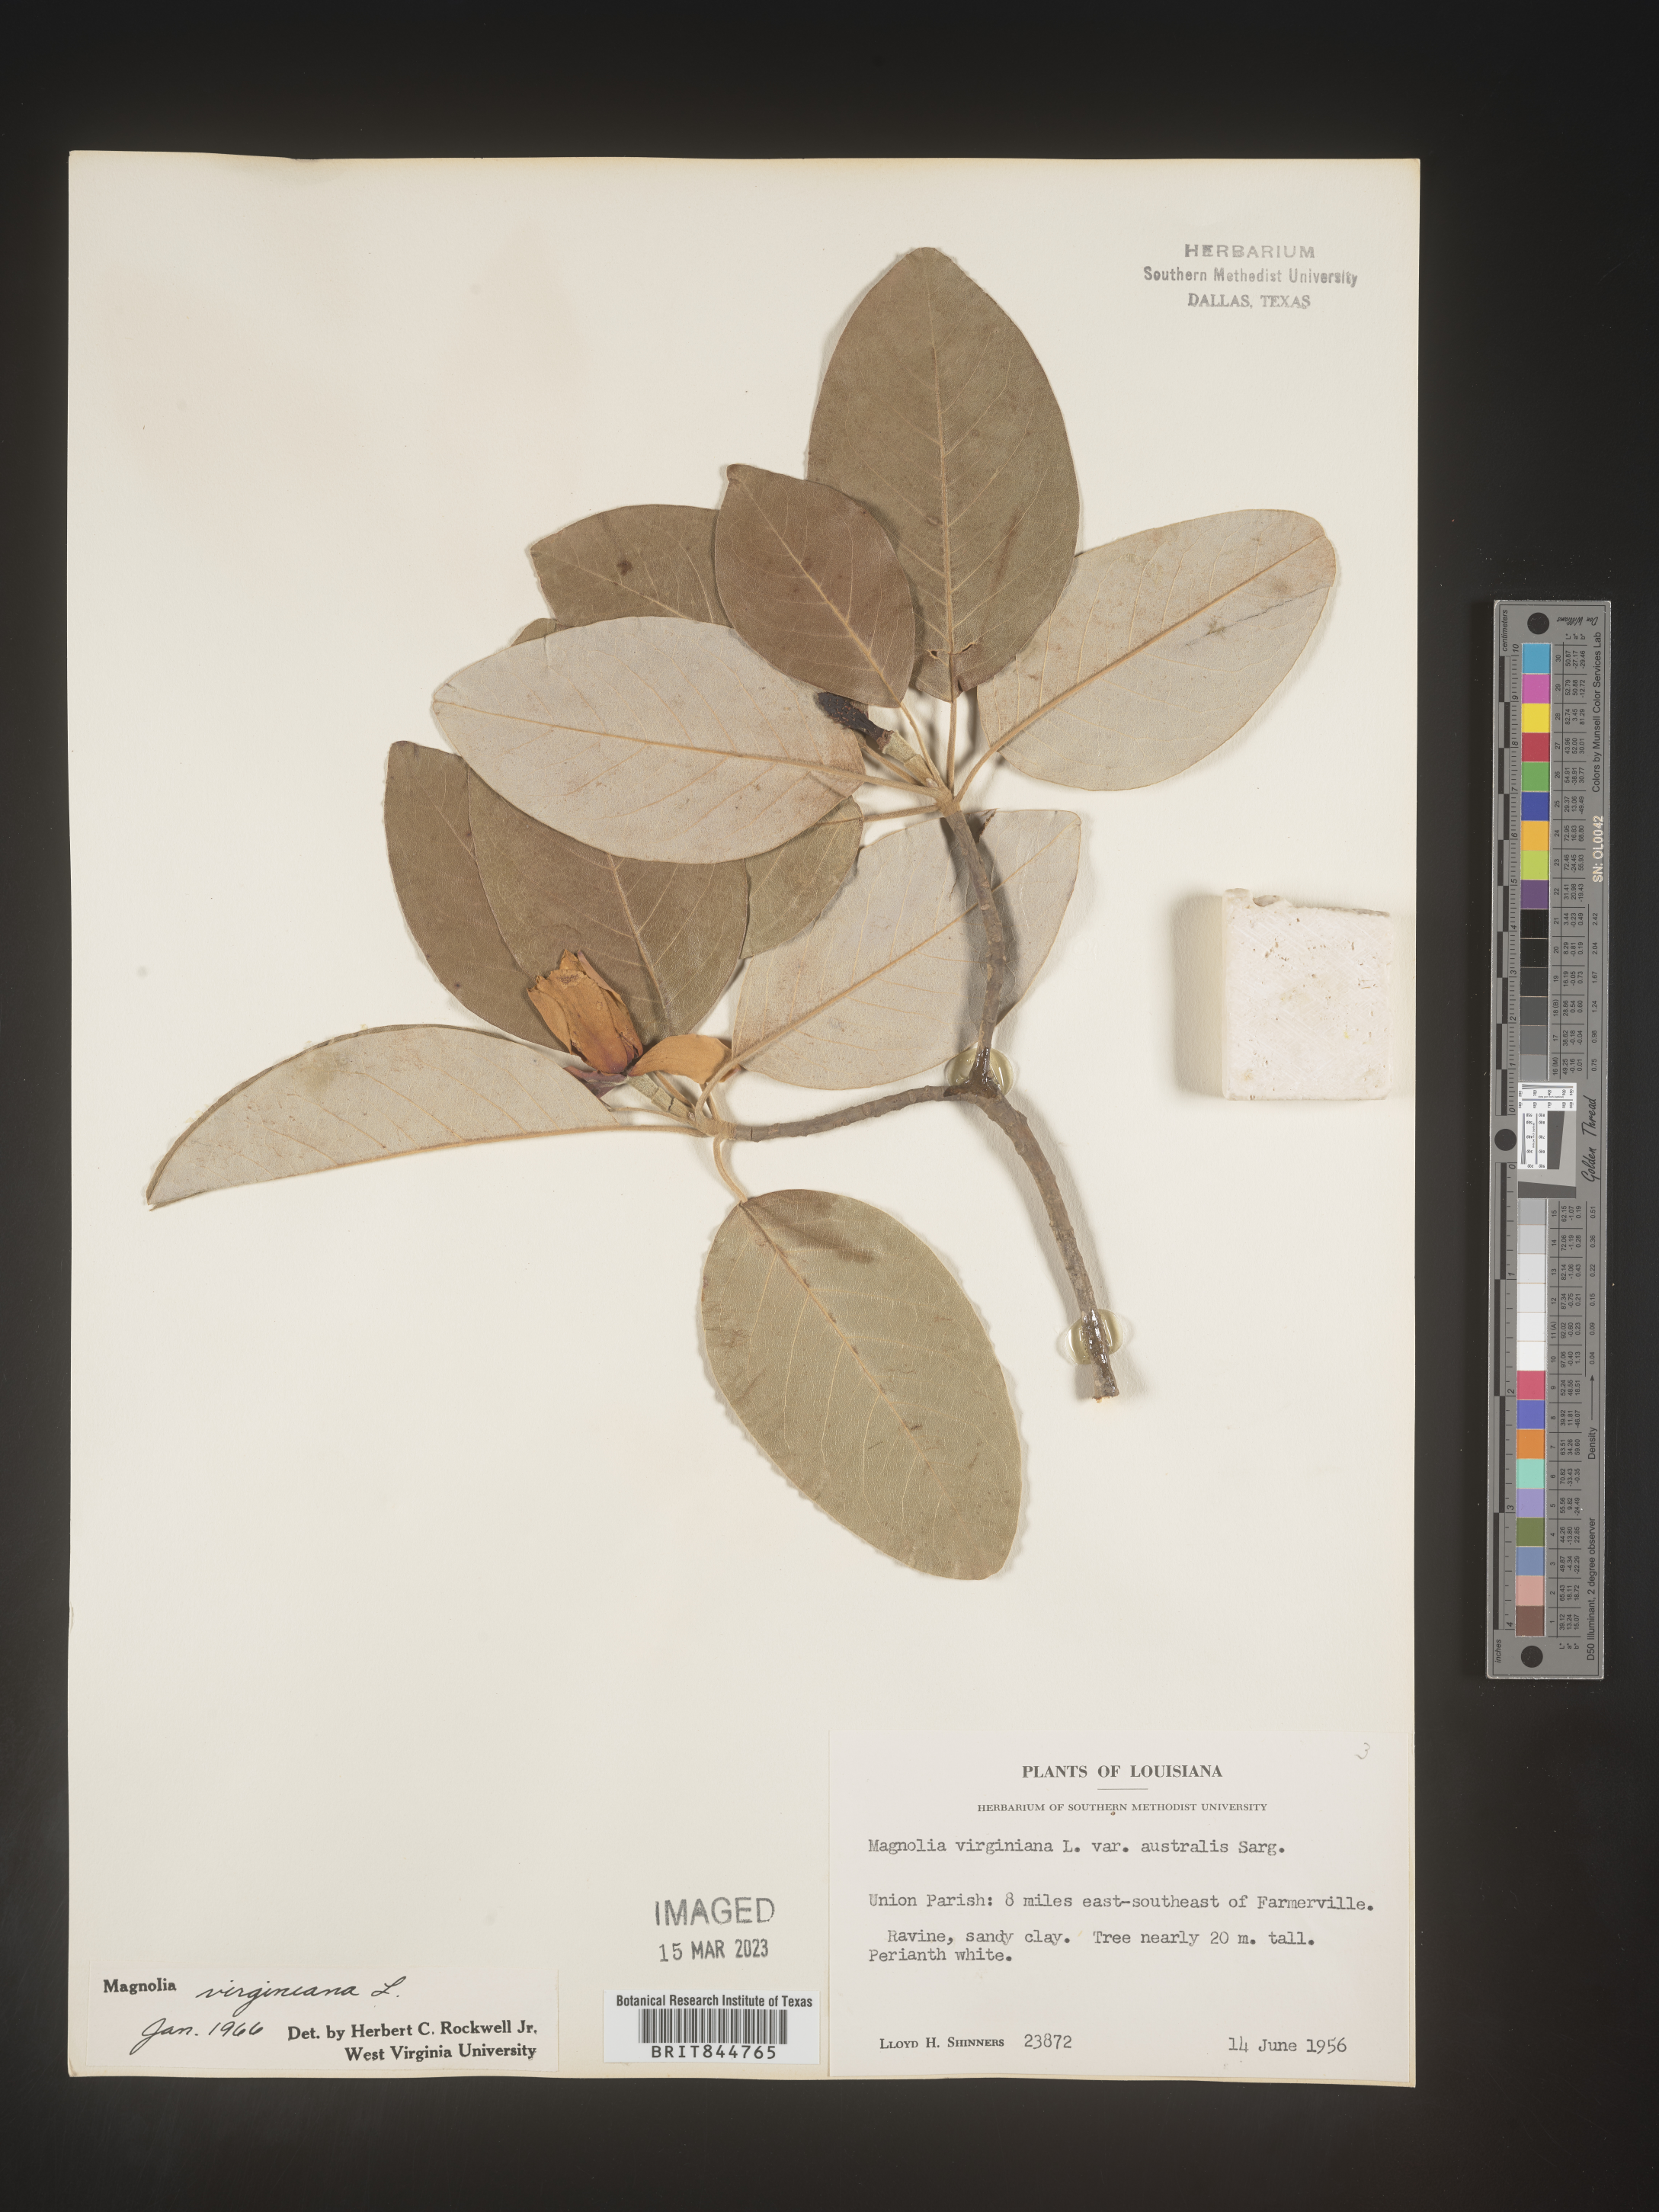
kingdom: Plantae
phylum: Tracheophyta
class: Magnoliopsida
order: Magnoliales
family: Magnoliaceae
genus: Magnolia
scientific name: Magnolia virginiana
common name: Swamp bay
